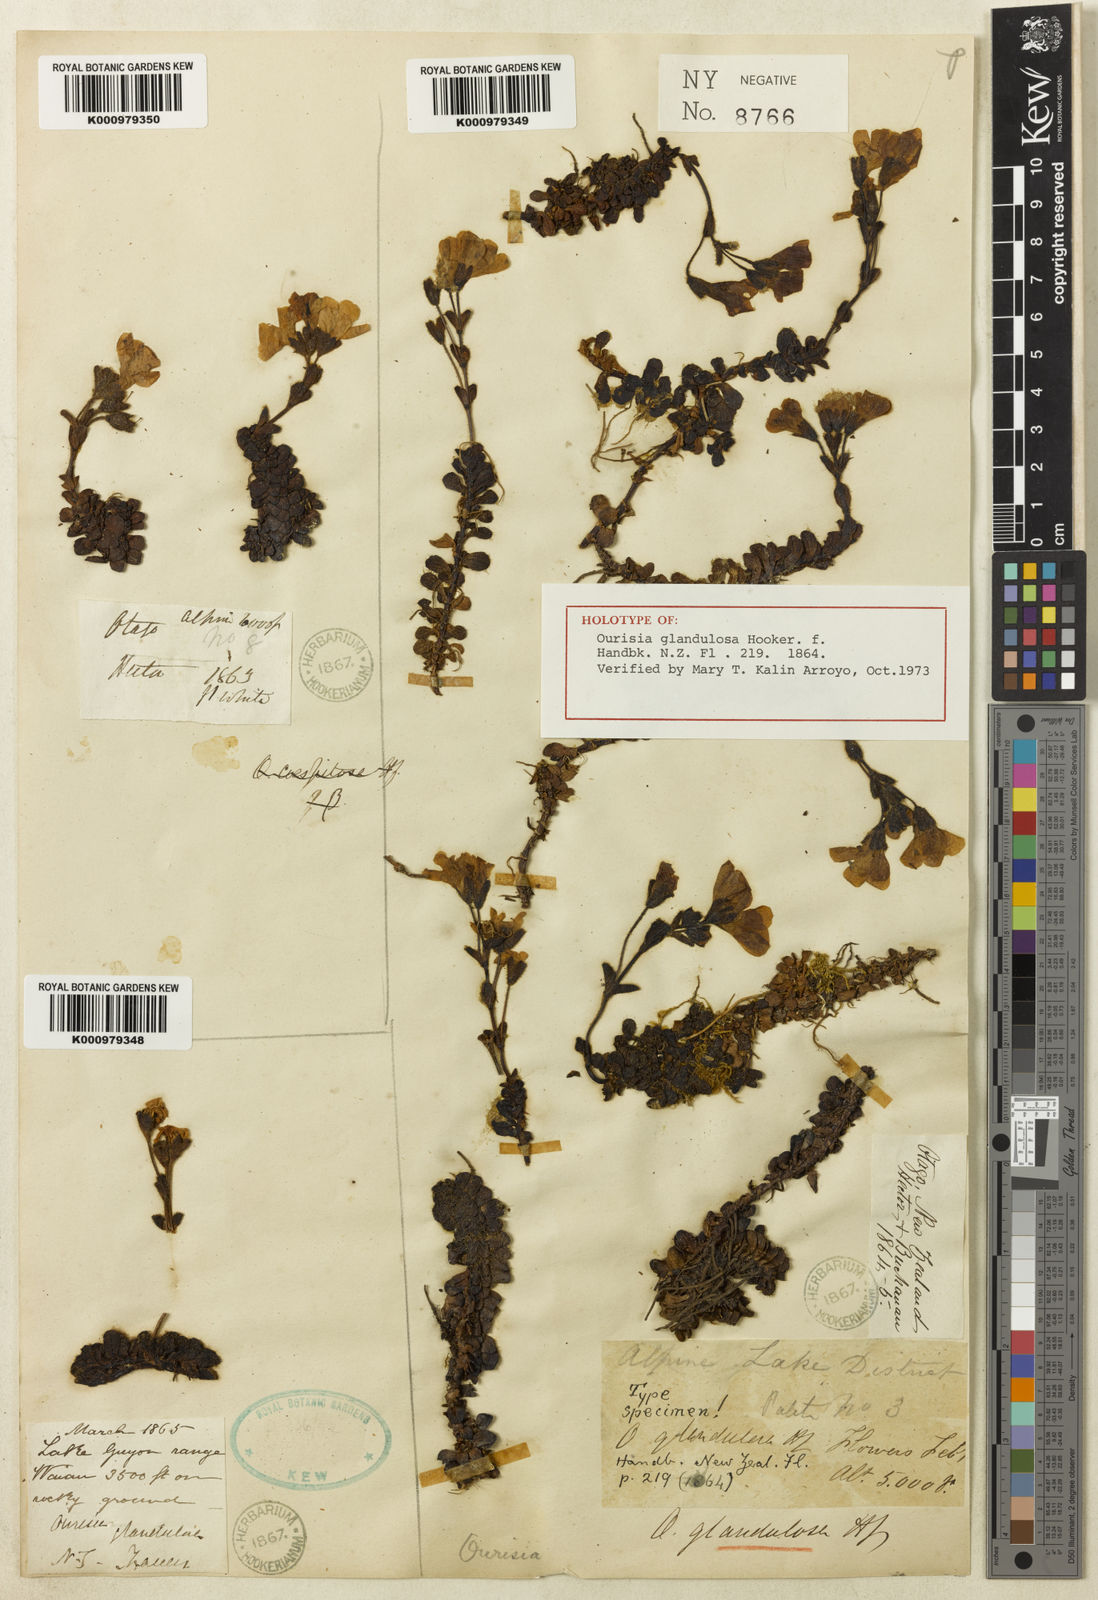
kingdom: Plantae
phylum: Tracheophyta
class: Magnoliopsida
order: Lamiales
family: Plantaginaceae
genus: Ourisia
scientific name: Ourisia glandulosa
